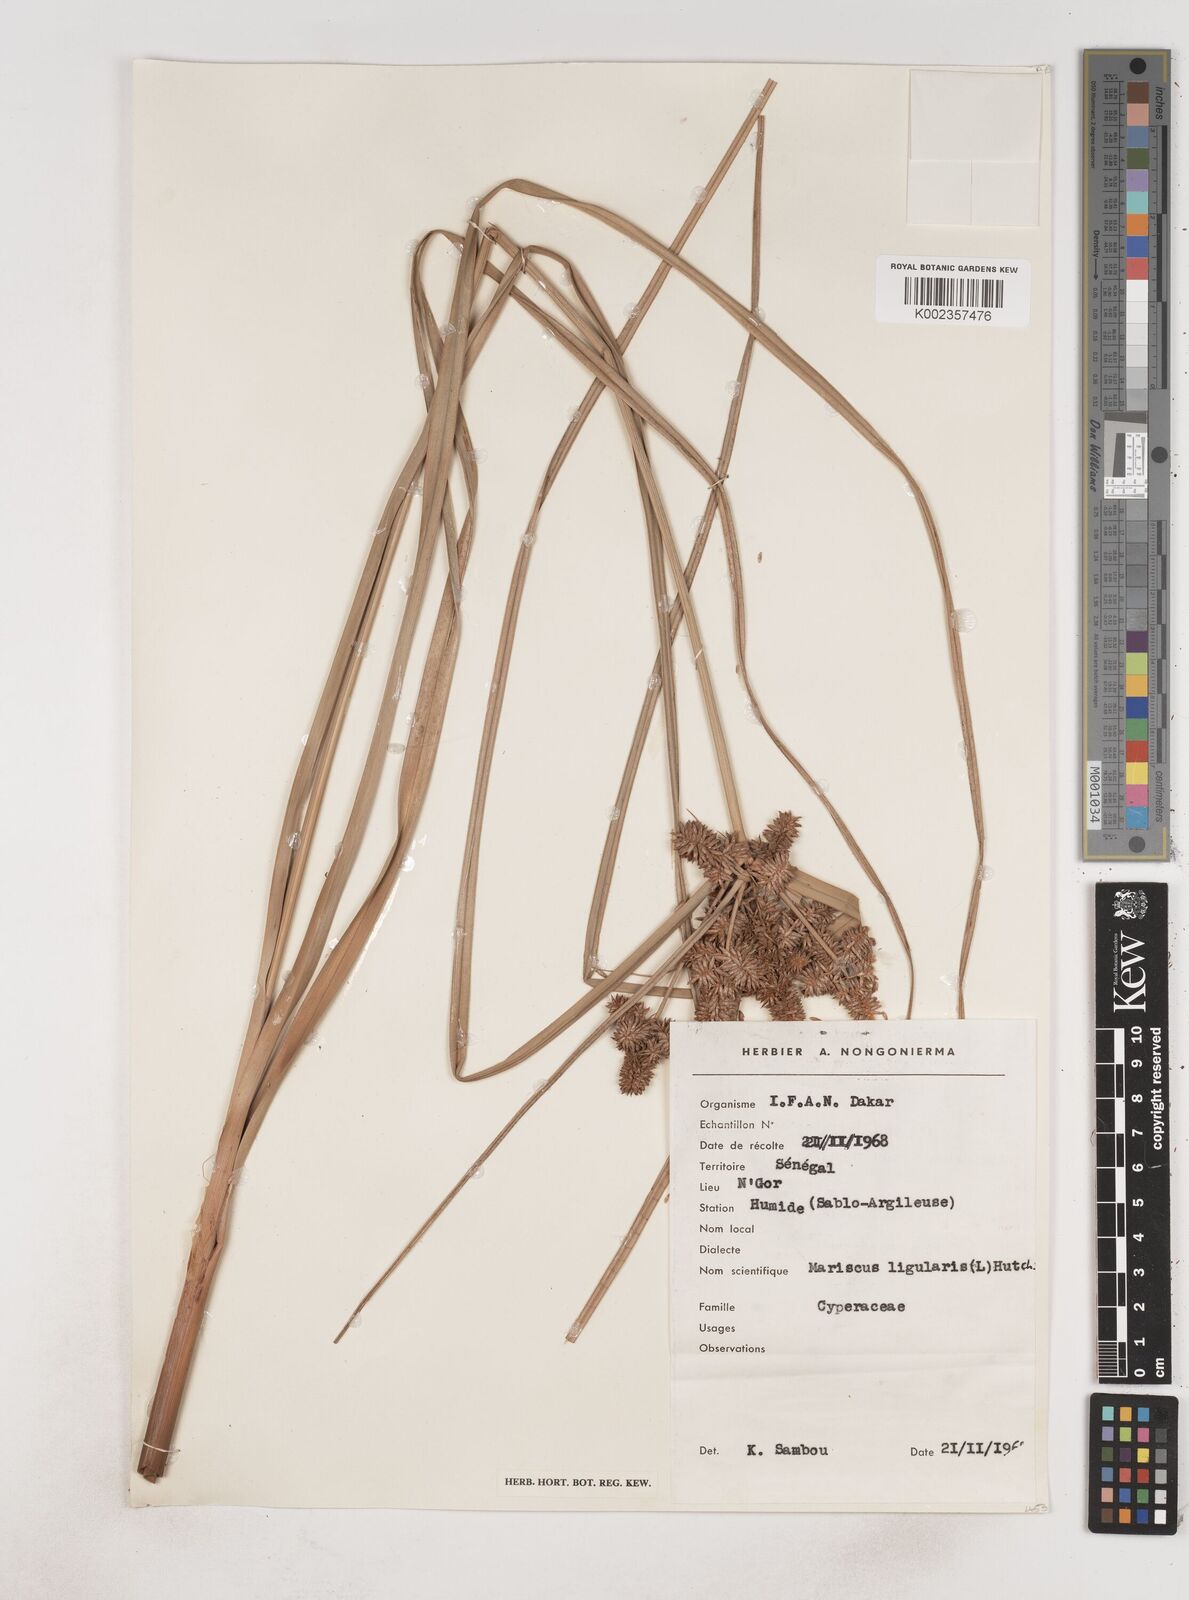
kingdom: Plantae
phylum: Tracheophyta
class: Liliopsida
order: Poales
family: Cyperaceae
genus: Cyperus
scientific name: Cyperus ligularis
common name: Swamp flat sedge
